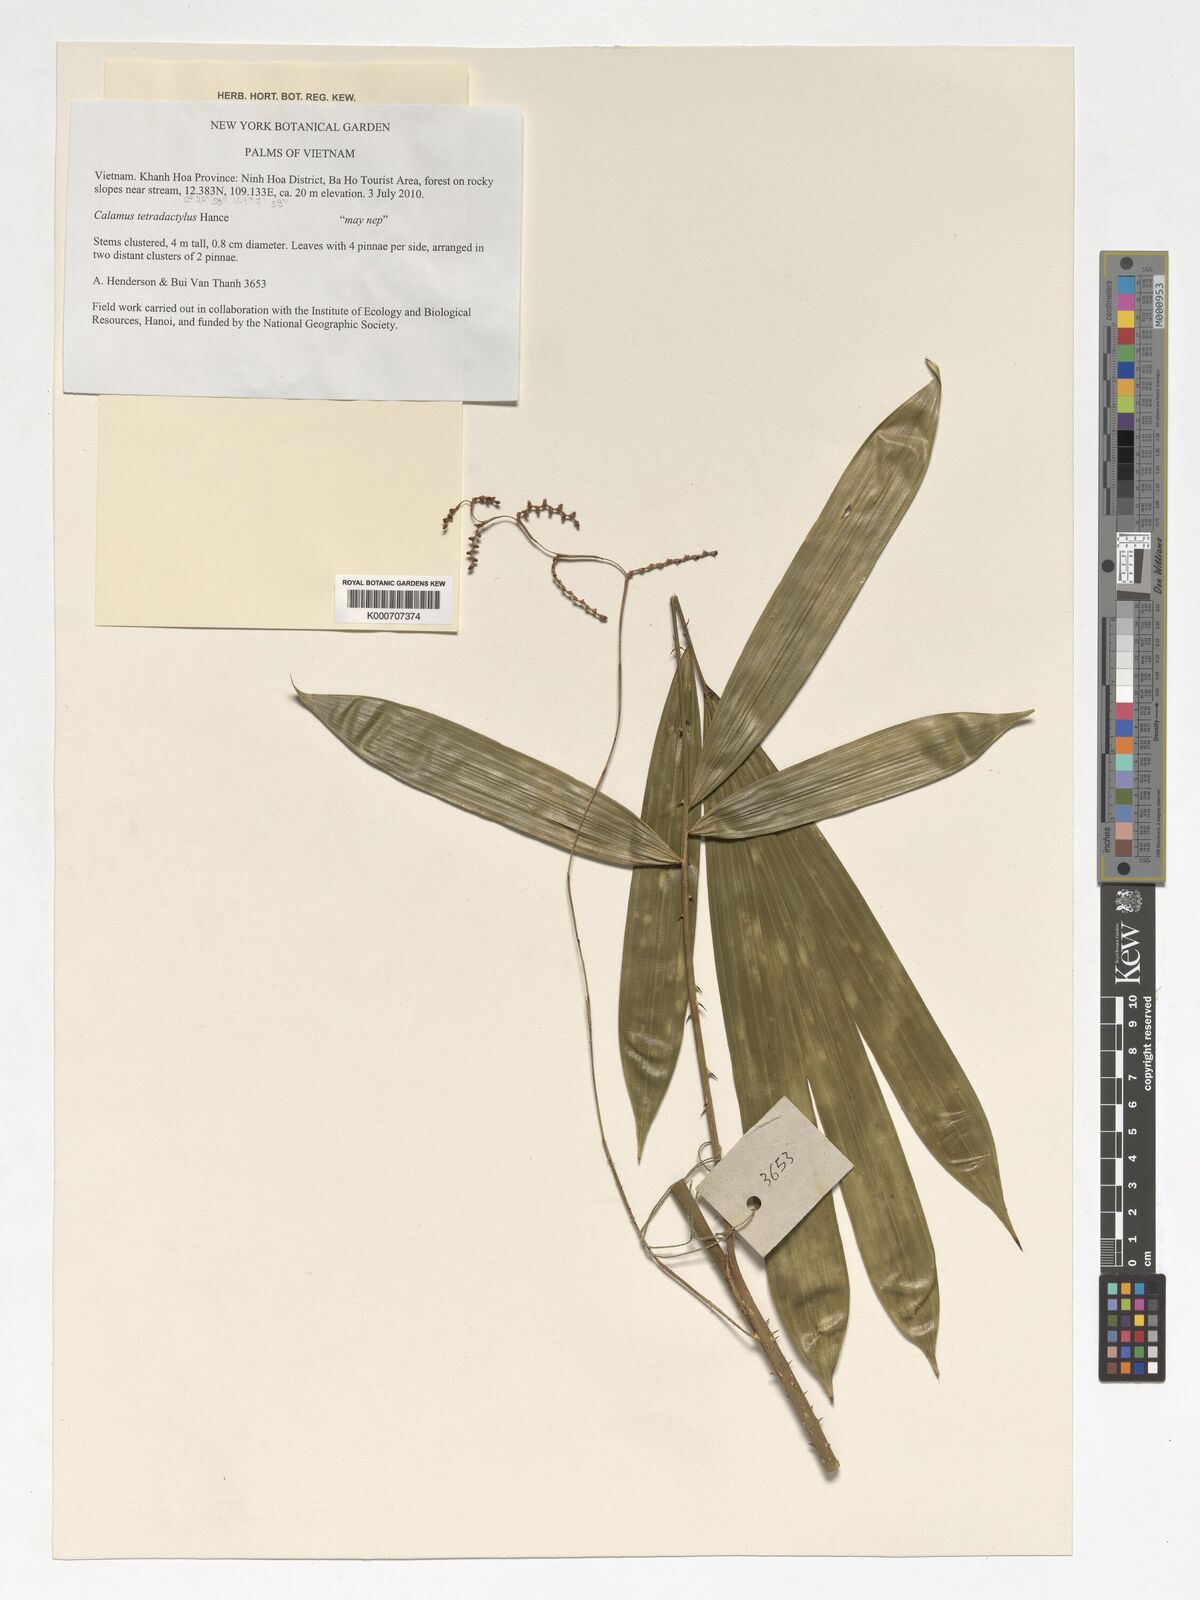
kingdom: Plantae
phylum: Tracheophyta
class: Liliopsida
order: Arecales
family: Arecaceae
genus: Calamus
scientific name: Calamus tetradactylus
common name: White rattan
